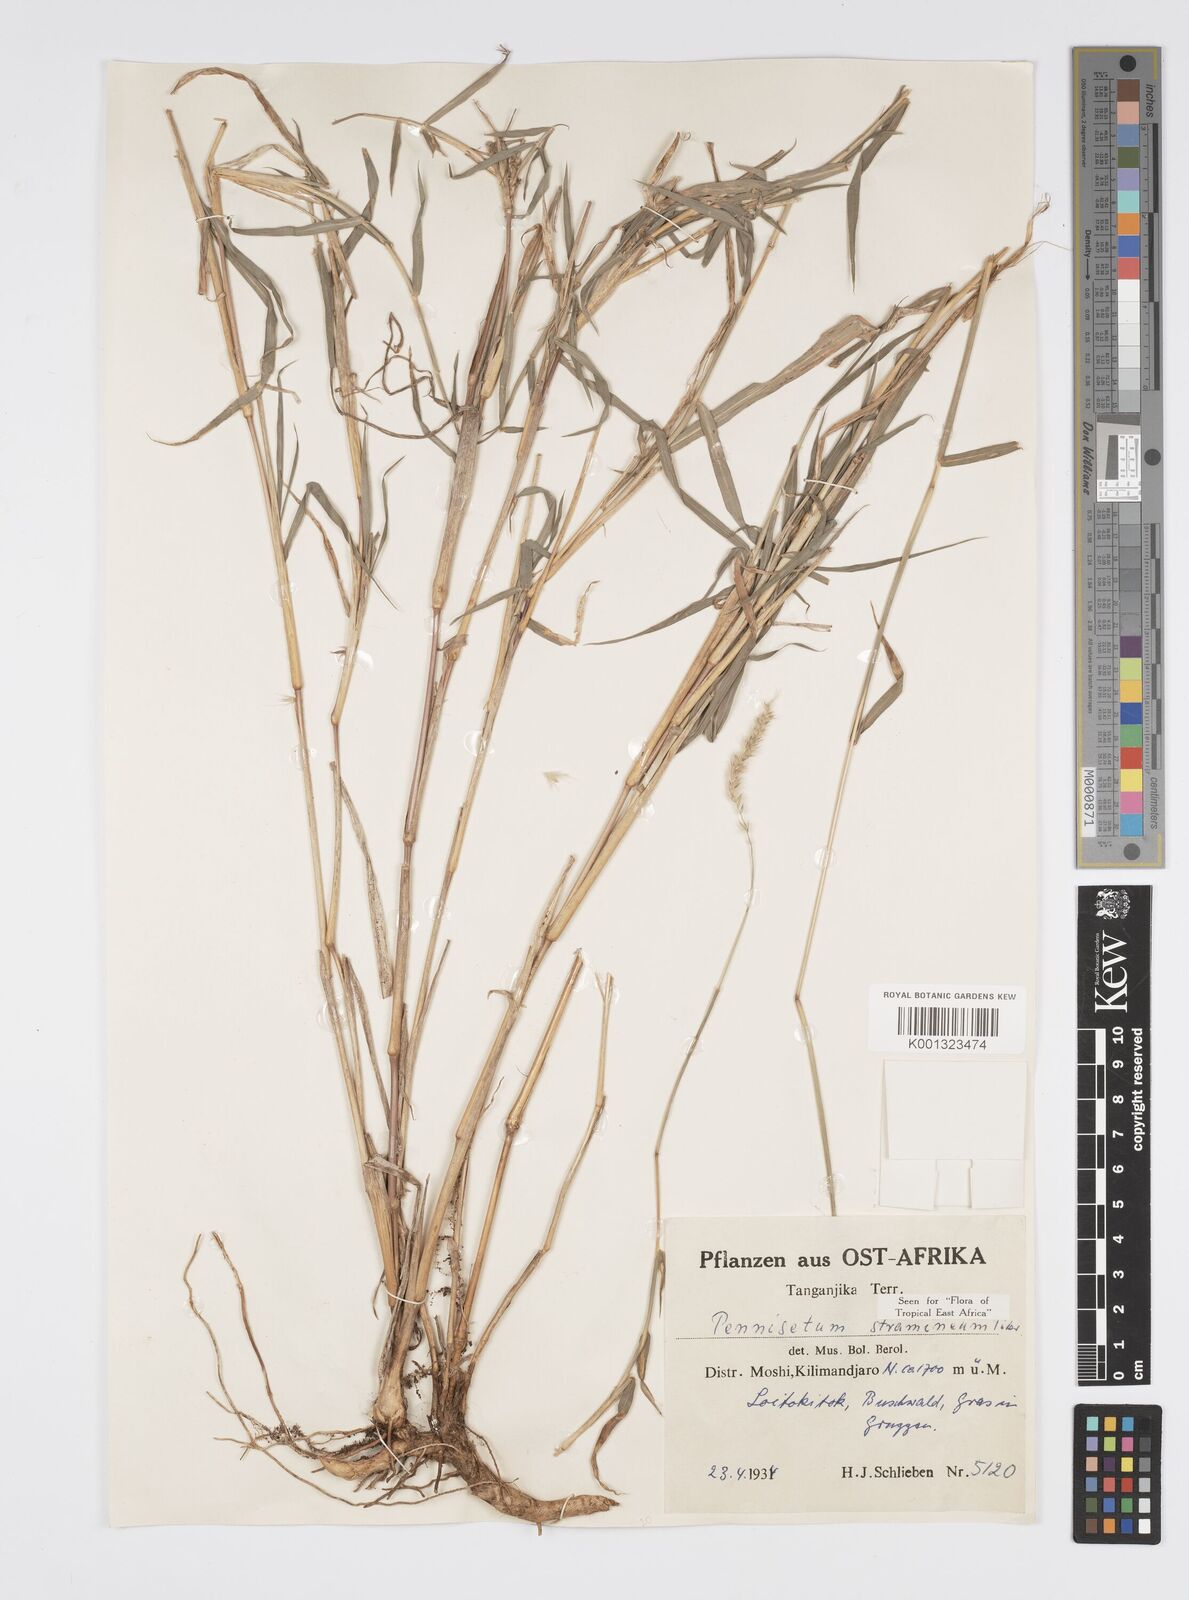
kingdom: Plantae
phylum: Tracheophyta
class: Liliopsida
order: Poales
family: Poaceae
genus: Cenchrus
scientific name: Cenchrus stramineus
